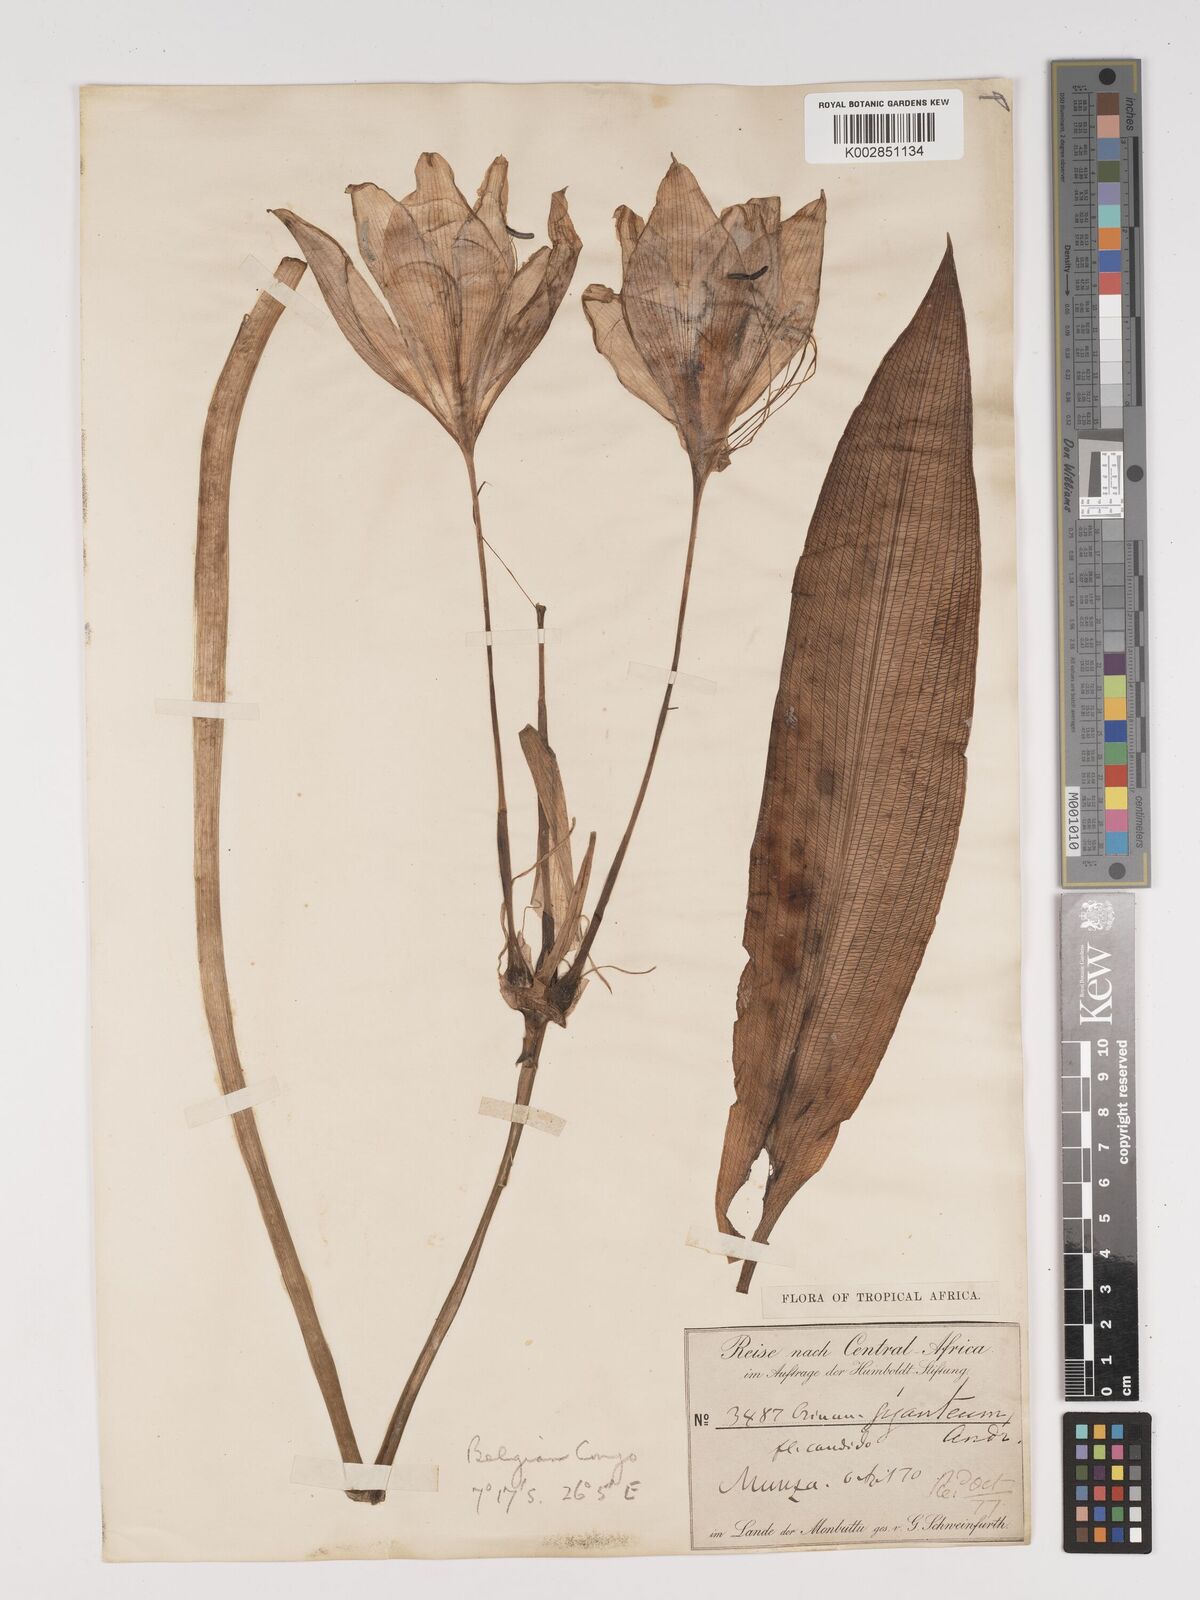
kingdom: Plantae
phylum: Tracheophyta
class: Liliopsida
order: Asparagales
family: Amaryllidaceae
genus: Crinum
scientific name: Crinum jagus
